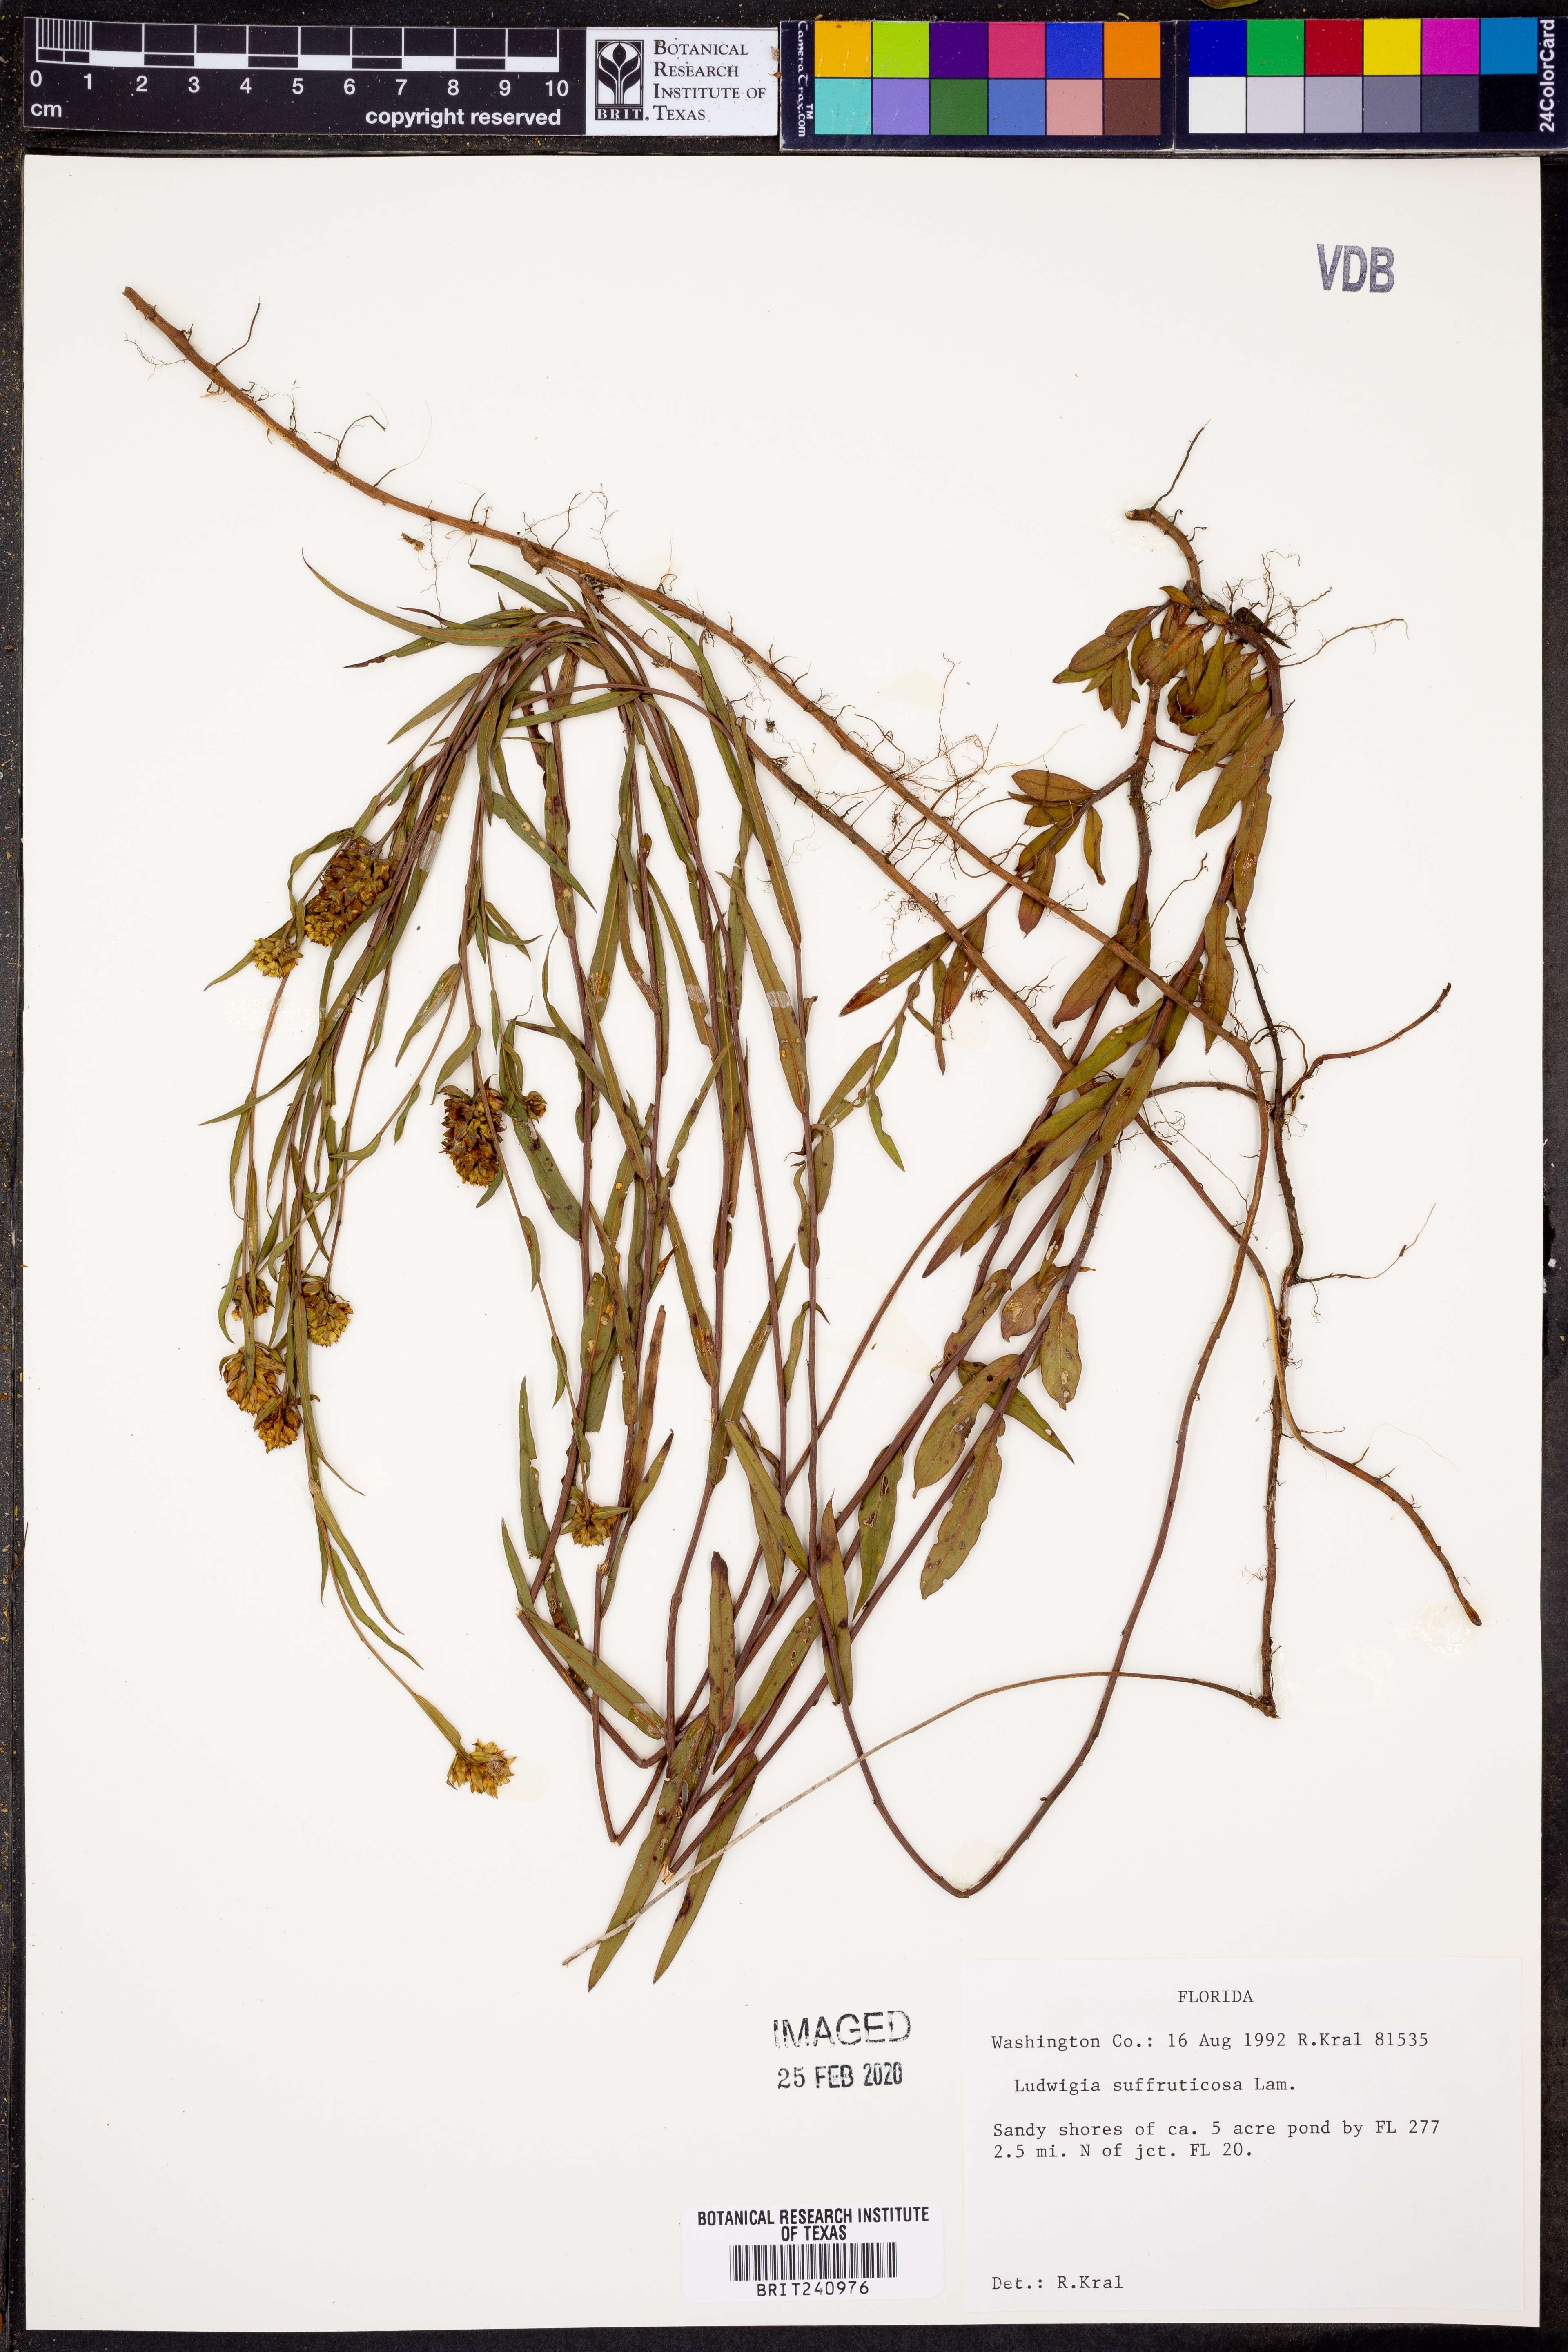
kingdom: Plantae
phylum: Tracheophyta
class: Magnoliopsida
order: Myrtales
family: Onagraceae
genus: Ludwigia
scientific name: Ludwigia suffruticosa
